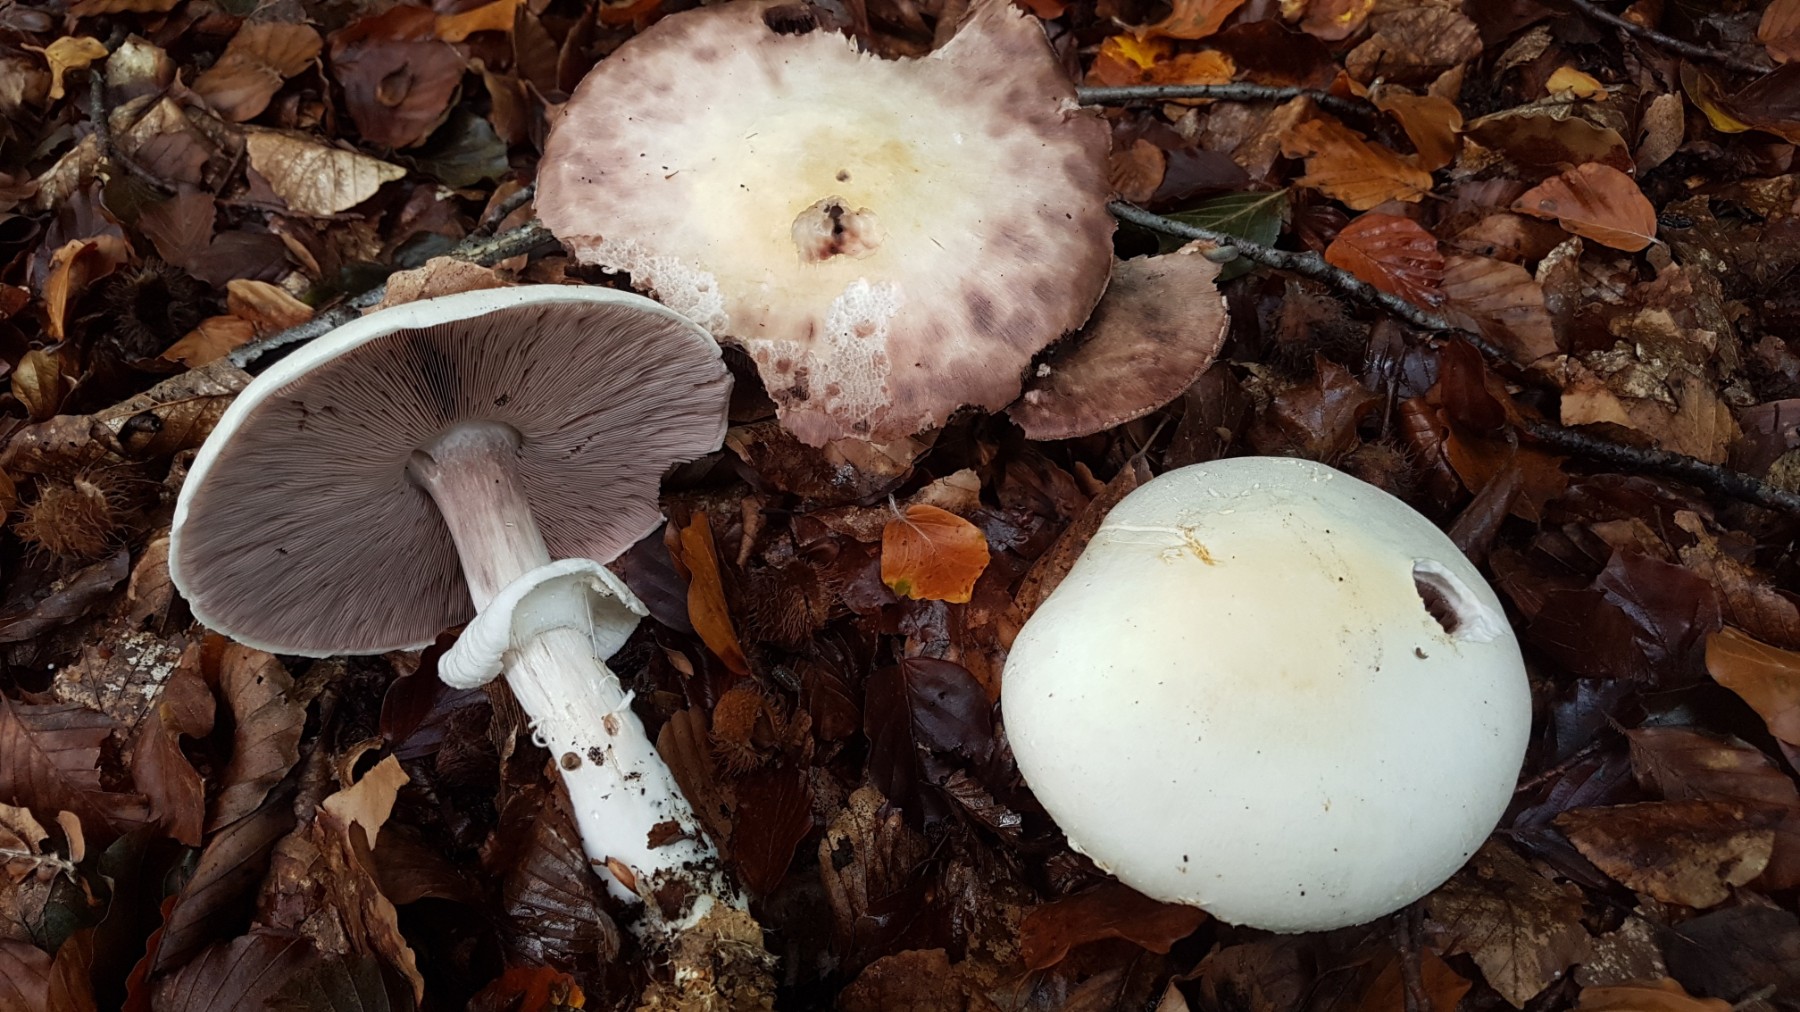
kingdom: Fungi
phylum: Basidiomycota
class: Agaricomycetes
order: Agaricales
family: Agaricaceae
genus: Agaricus
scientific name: Agaricus
